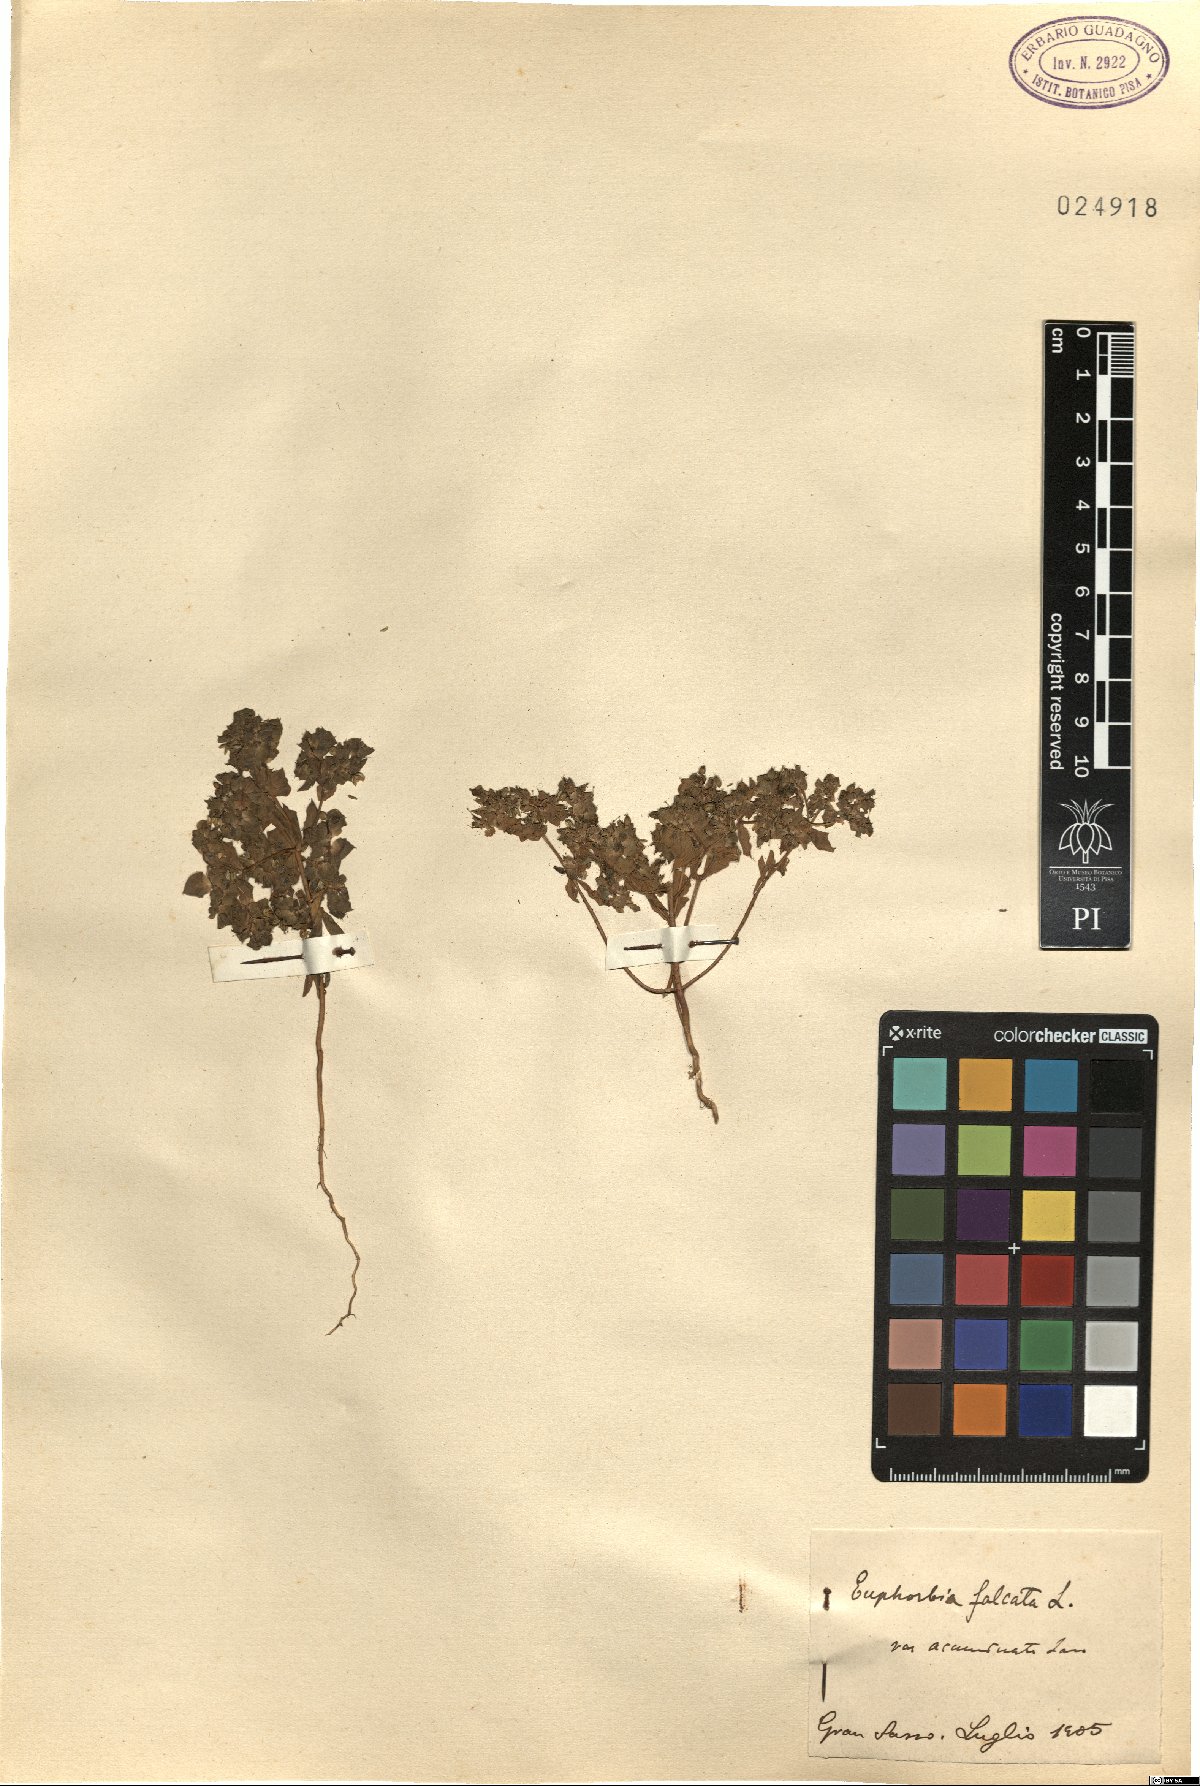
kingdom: Plantae
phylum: Tracheophyta
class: Magnoliopsida
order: Malpighiales
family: Euphorbiaceae
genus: Euphorbia
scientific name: Euphorbia falcata
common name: Sickle spurge
